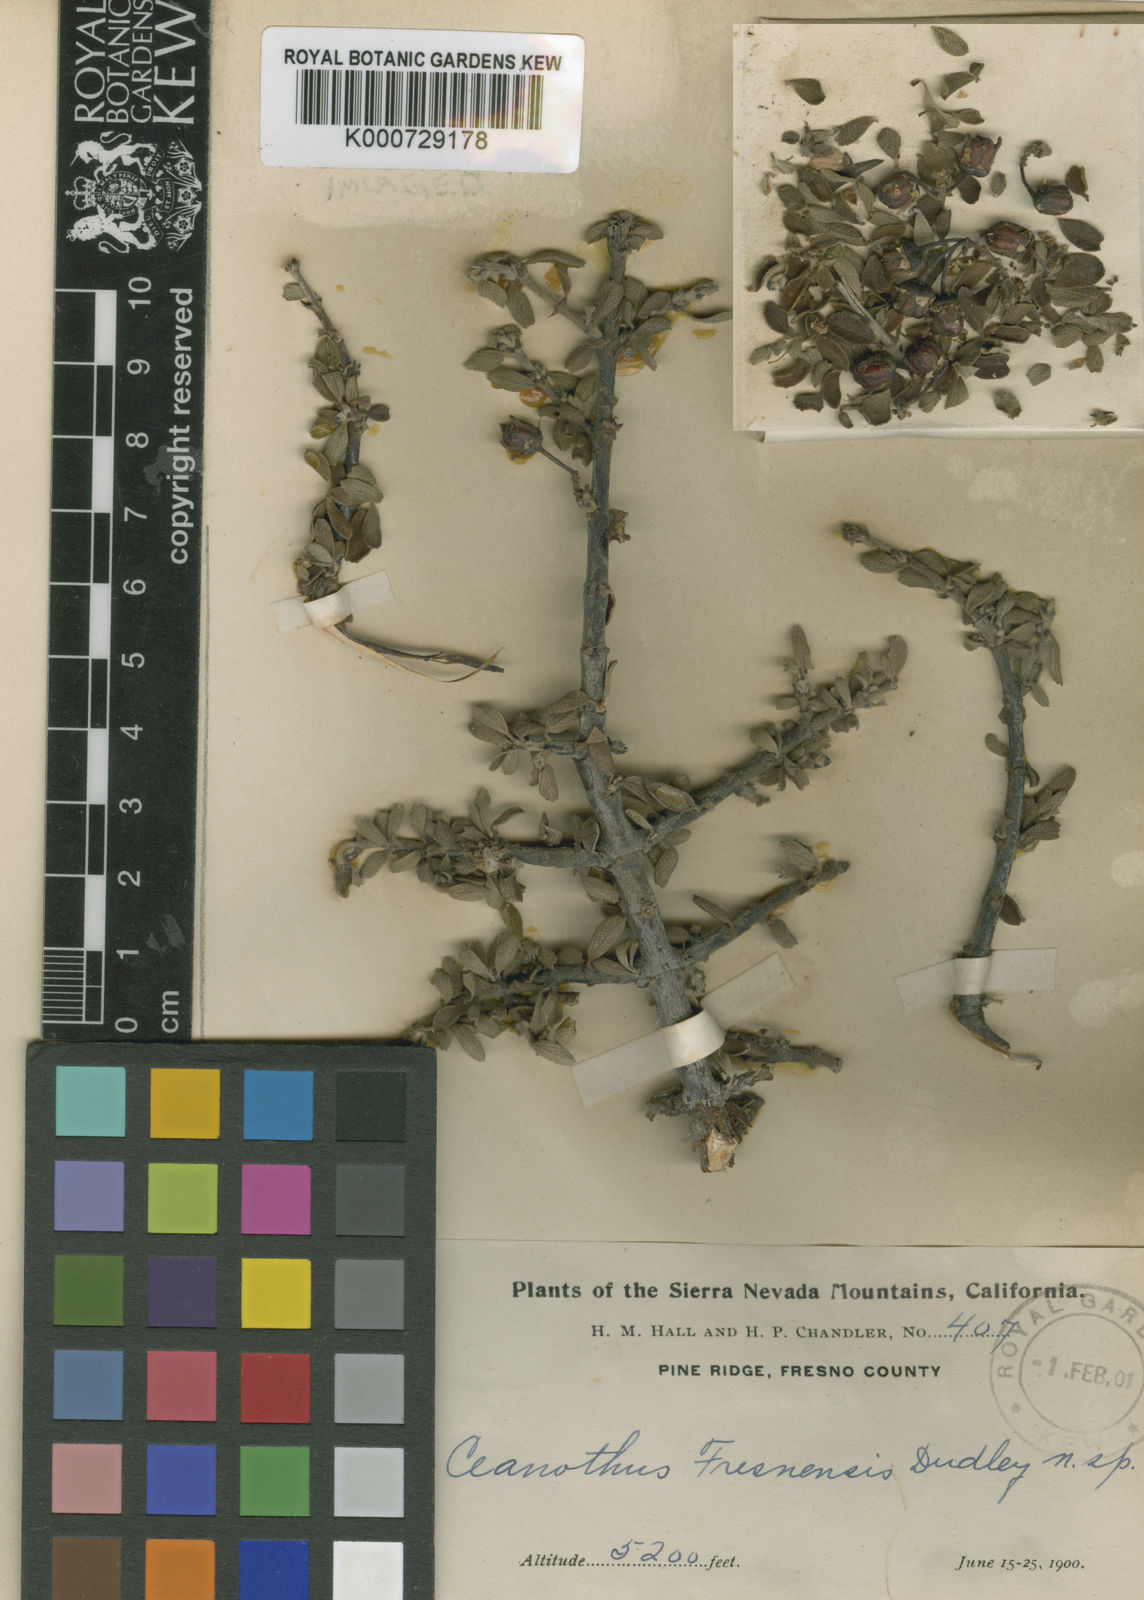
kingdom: Plantae
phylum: Tracheophyta
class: Magnoliopsida
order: Rosales
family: Rhamnaceae
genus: Ceanothus
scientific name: Ceanothus fresnensis
